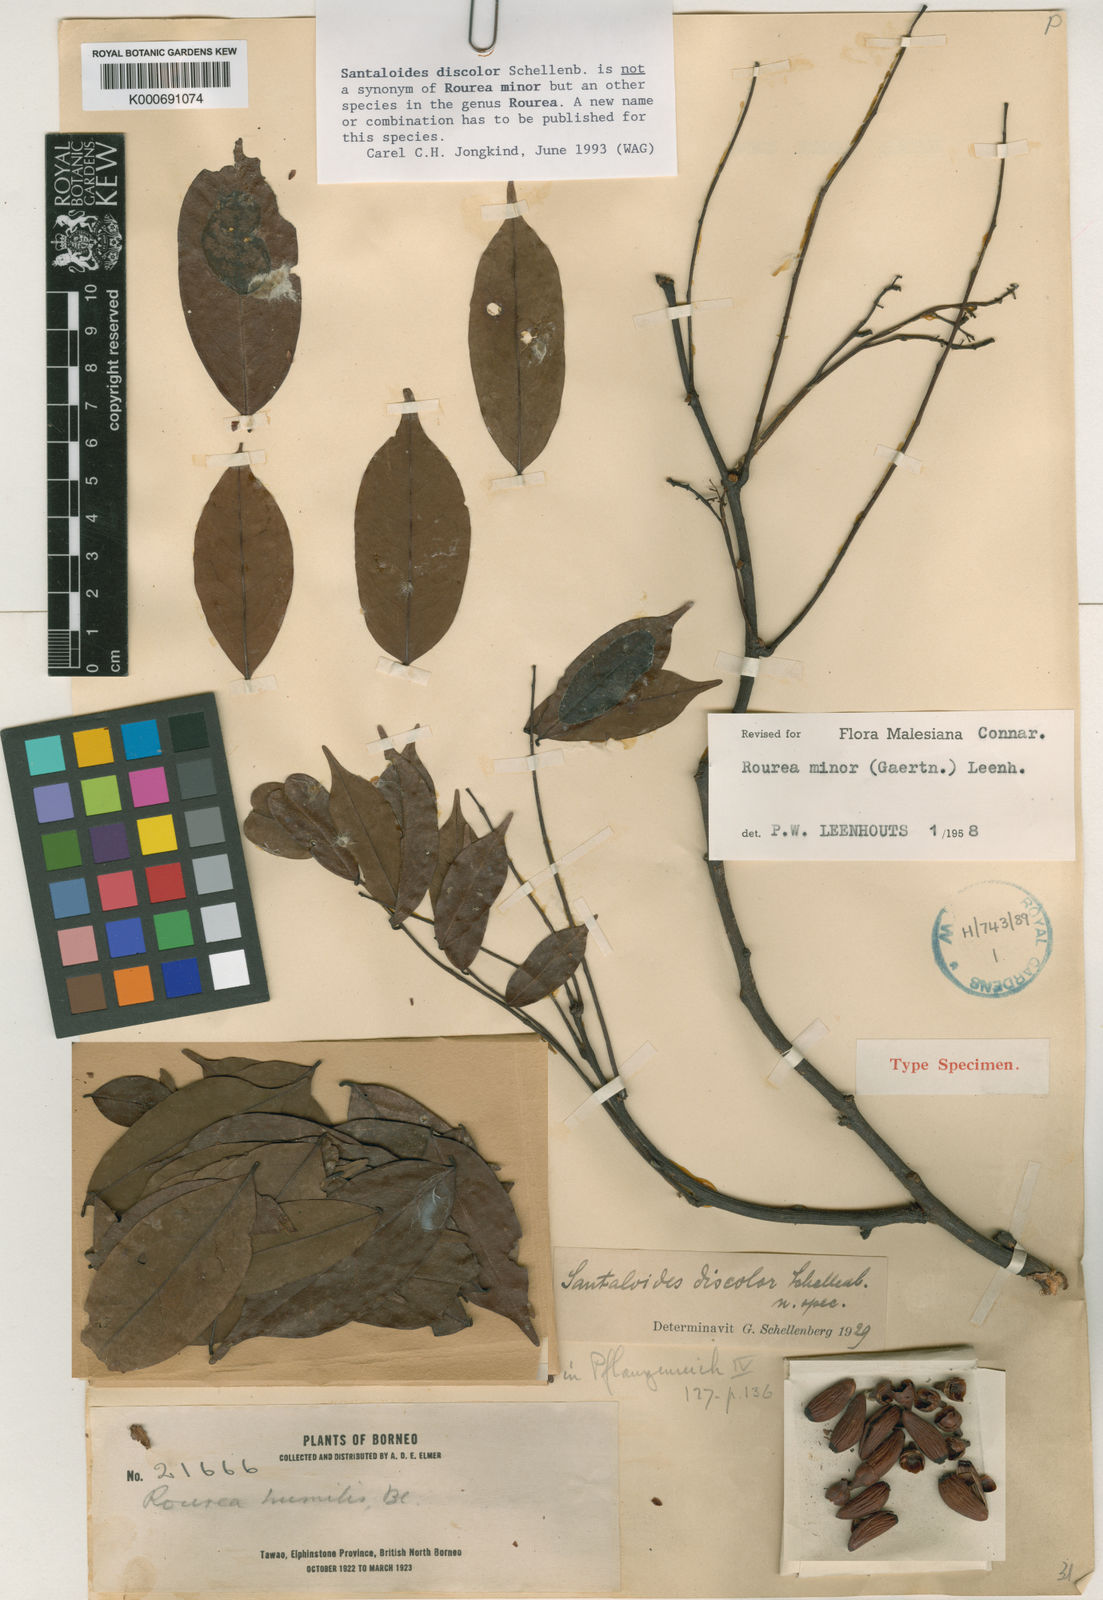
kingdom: Plantae
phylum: Tracheophyta
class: Magnoliopsida
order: Oxalidales
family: Connaraceae
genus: Rourea
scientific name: Rourea minor
